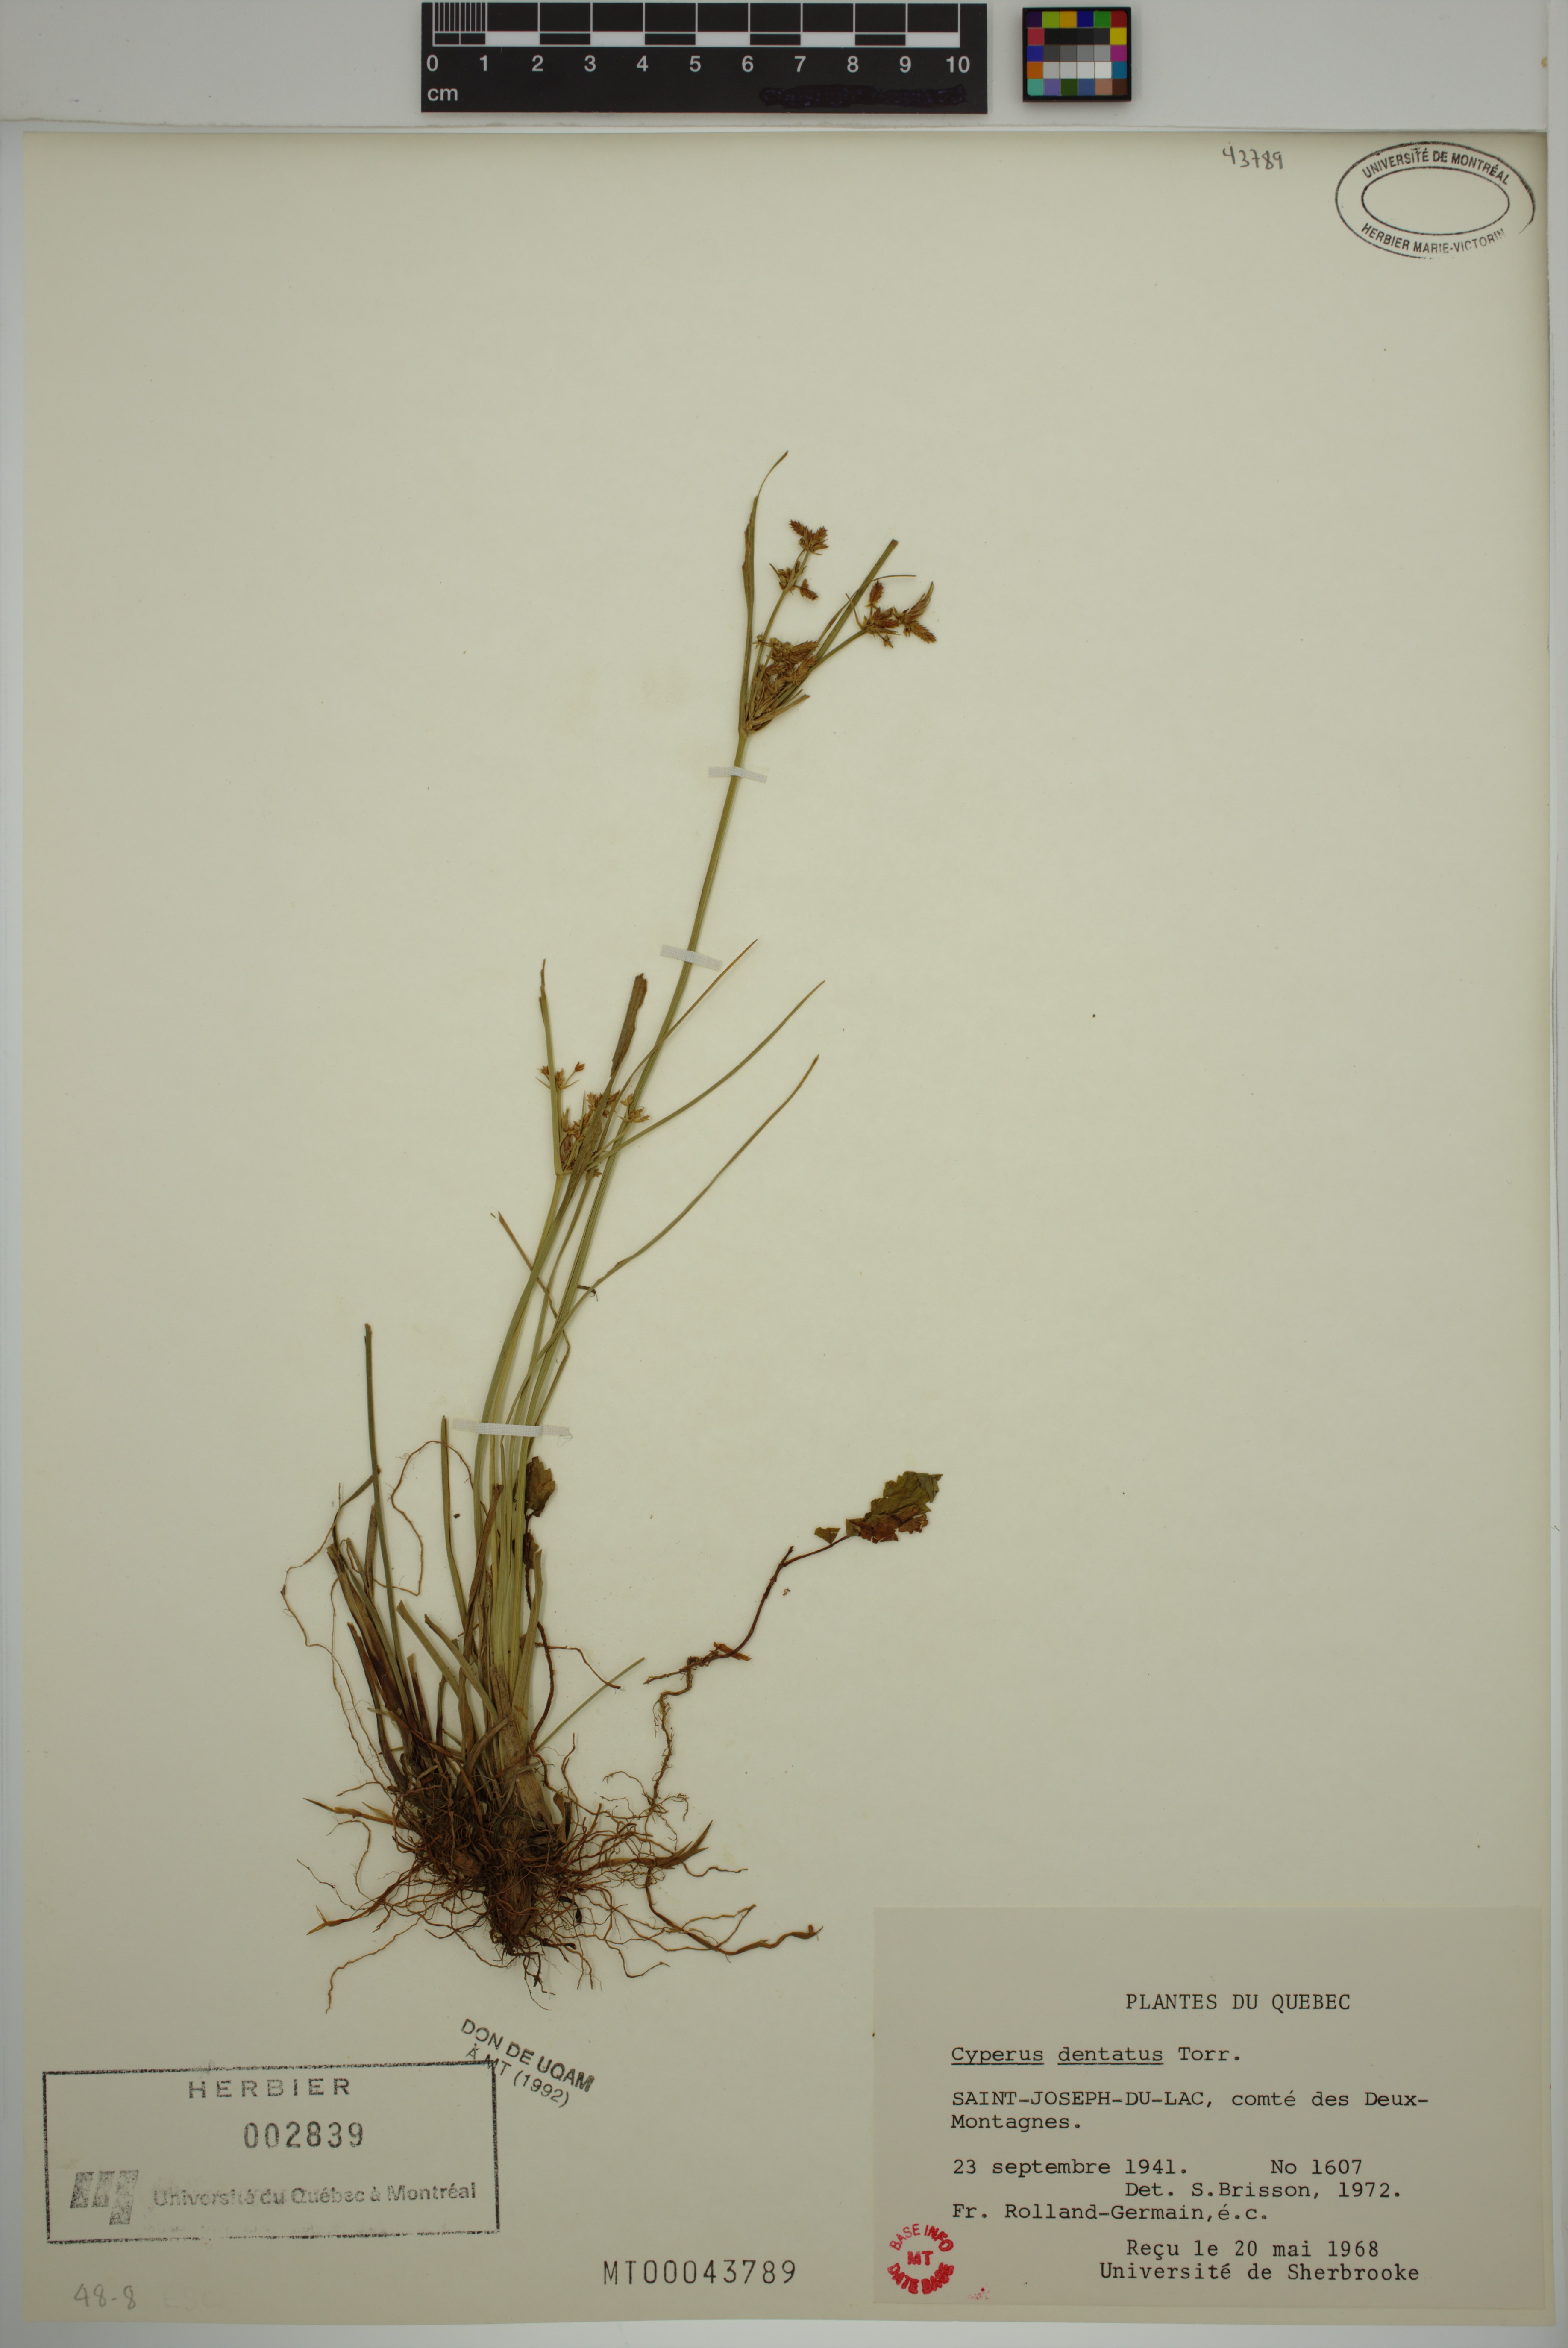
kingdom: Plantae
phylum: Tracheophyta
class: Liliopsida
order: Poales
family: Cyperaceae
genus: Cyperus
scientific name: Cyperus dentatus
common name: Dentate umbrella sedge
